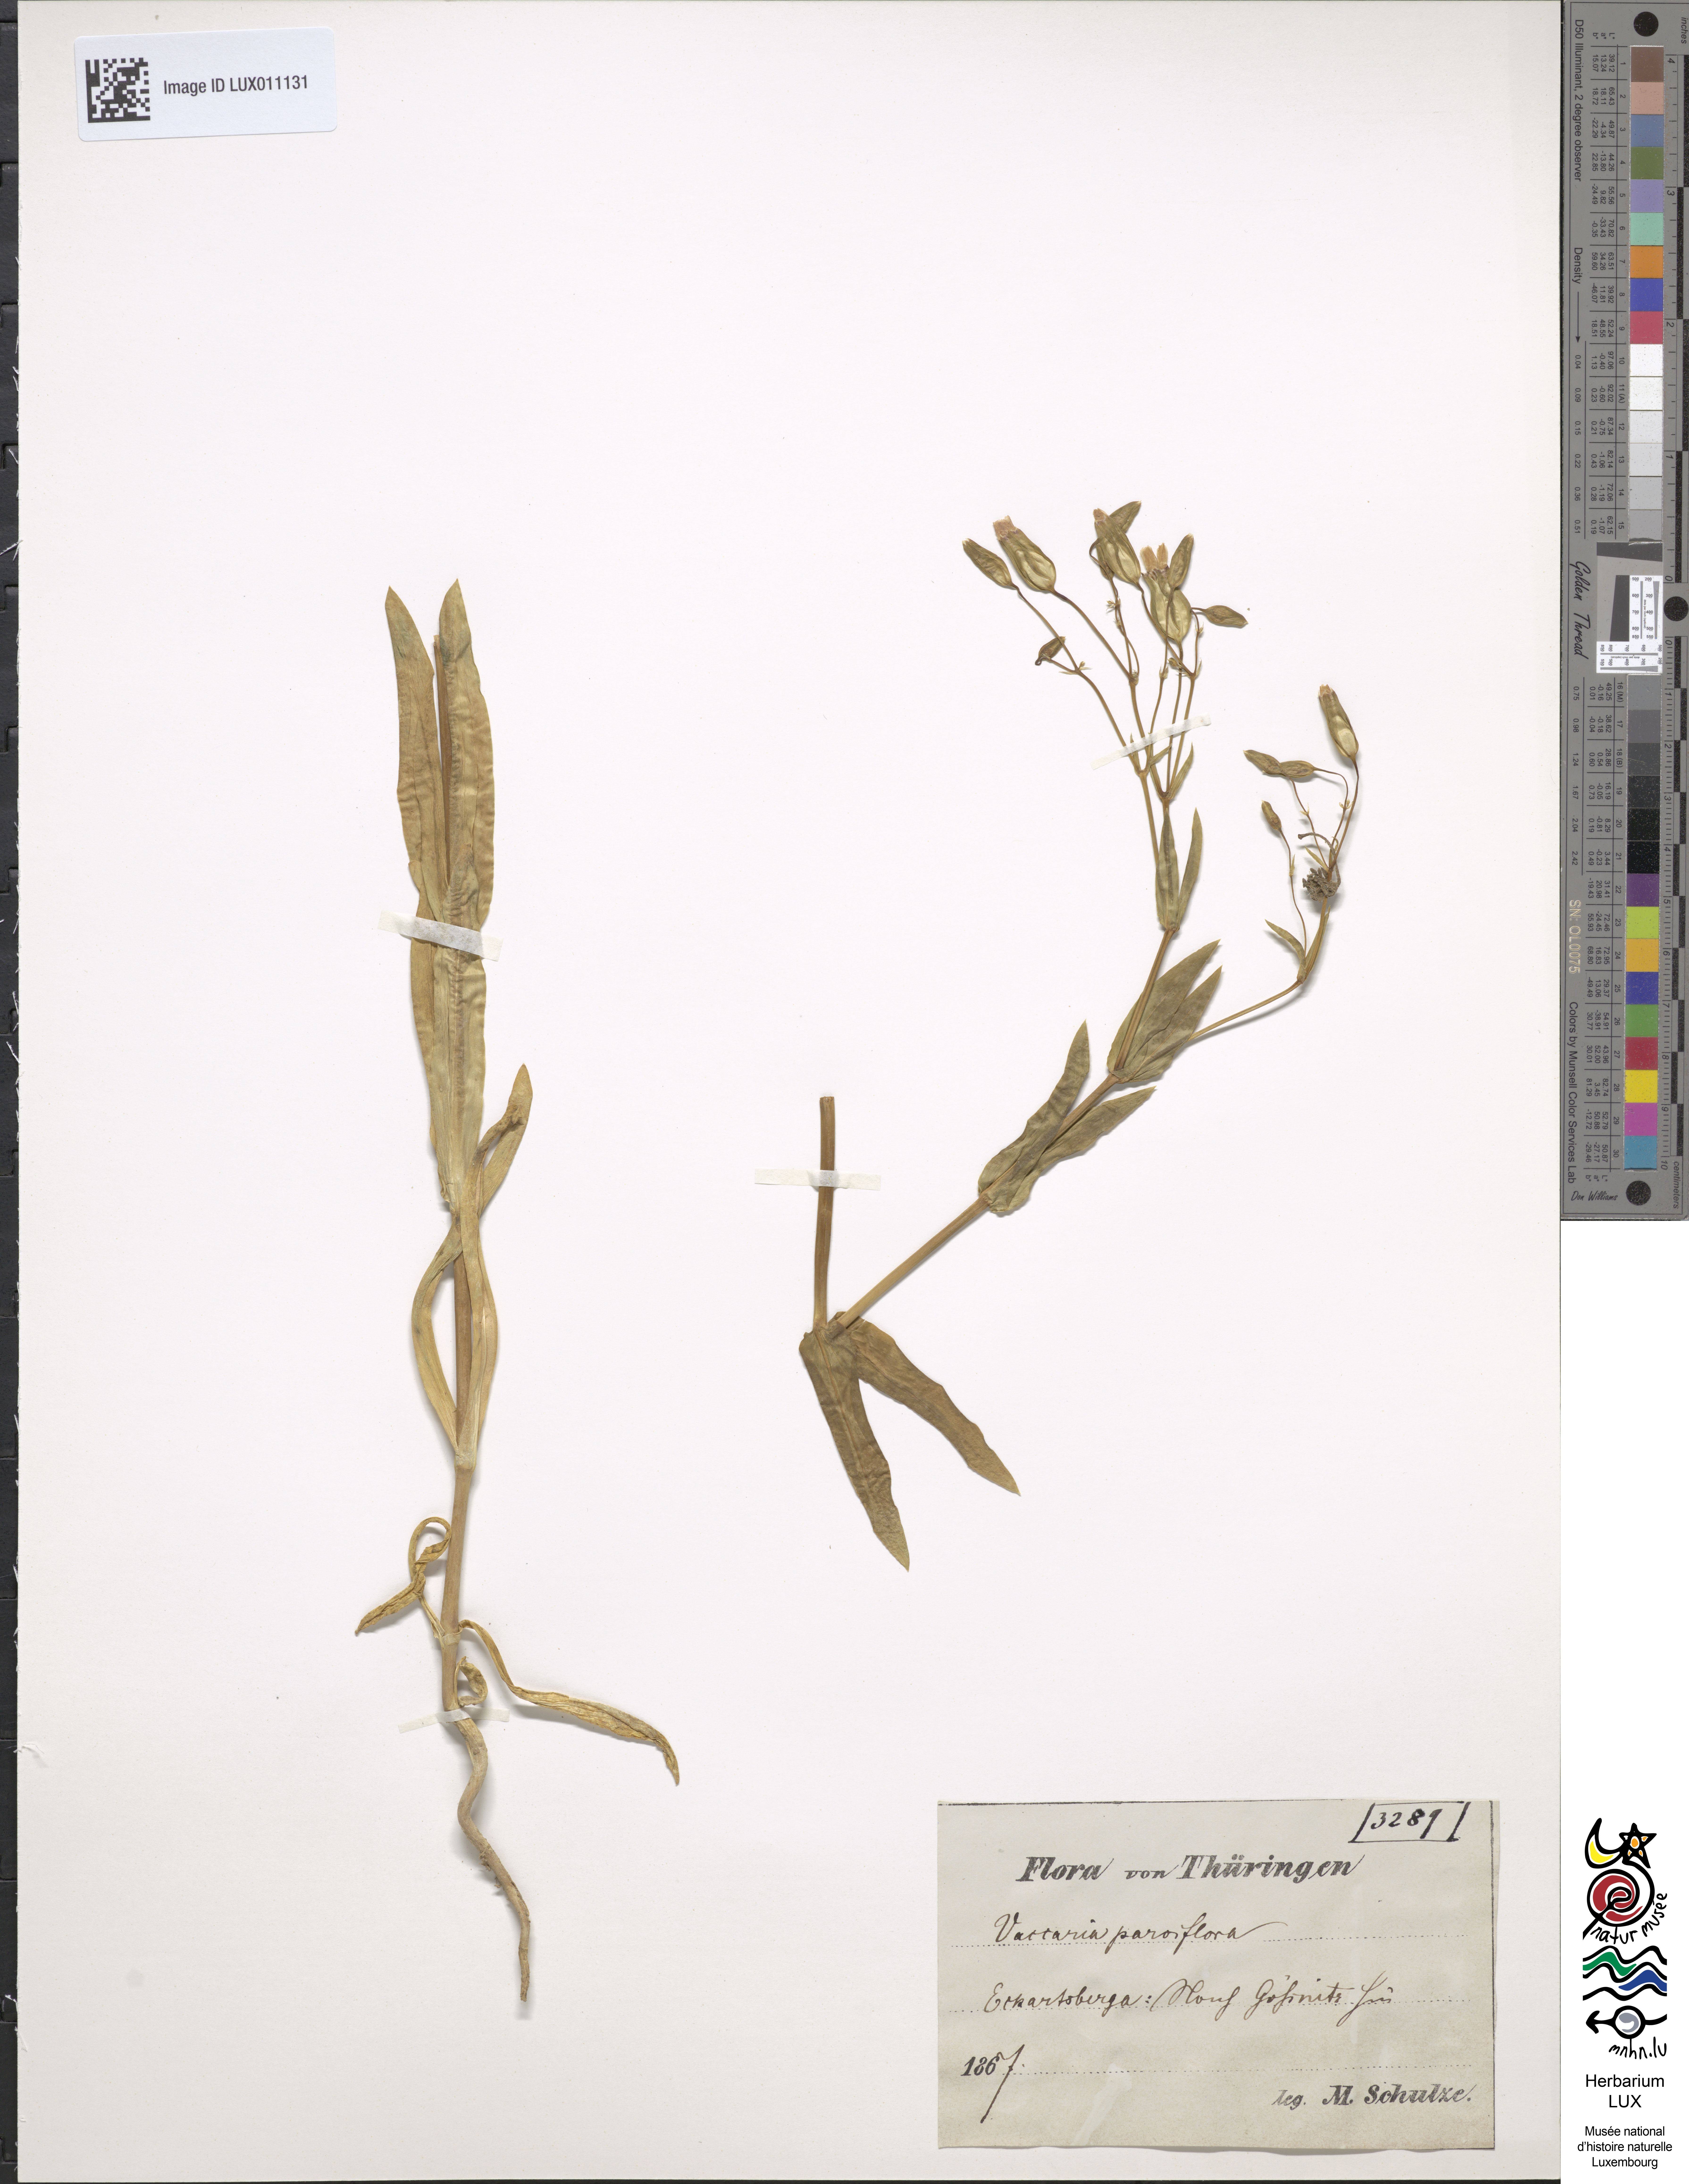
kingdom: Plantae
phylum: Tracheophyta
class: Magnoliopsida
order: Caryophyllales
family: Caryophyllaceae
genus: Gypsophila
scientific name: Gypsophila vaccaria
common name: Cow soapwort
